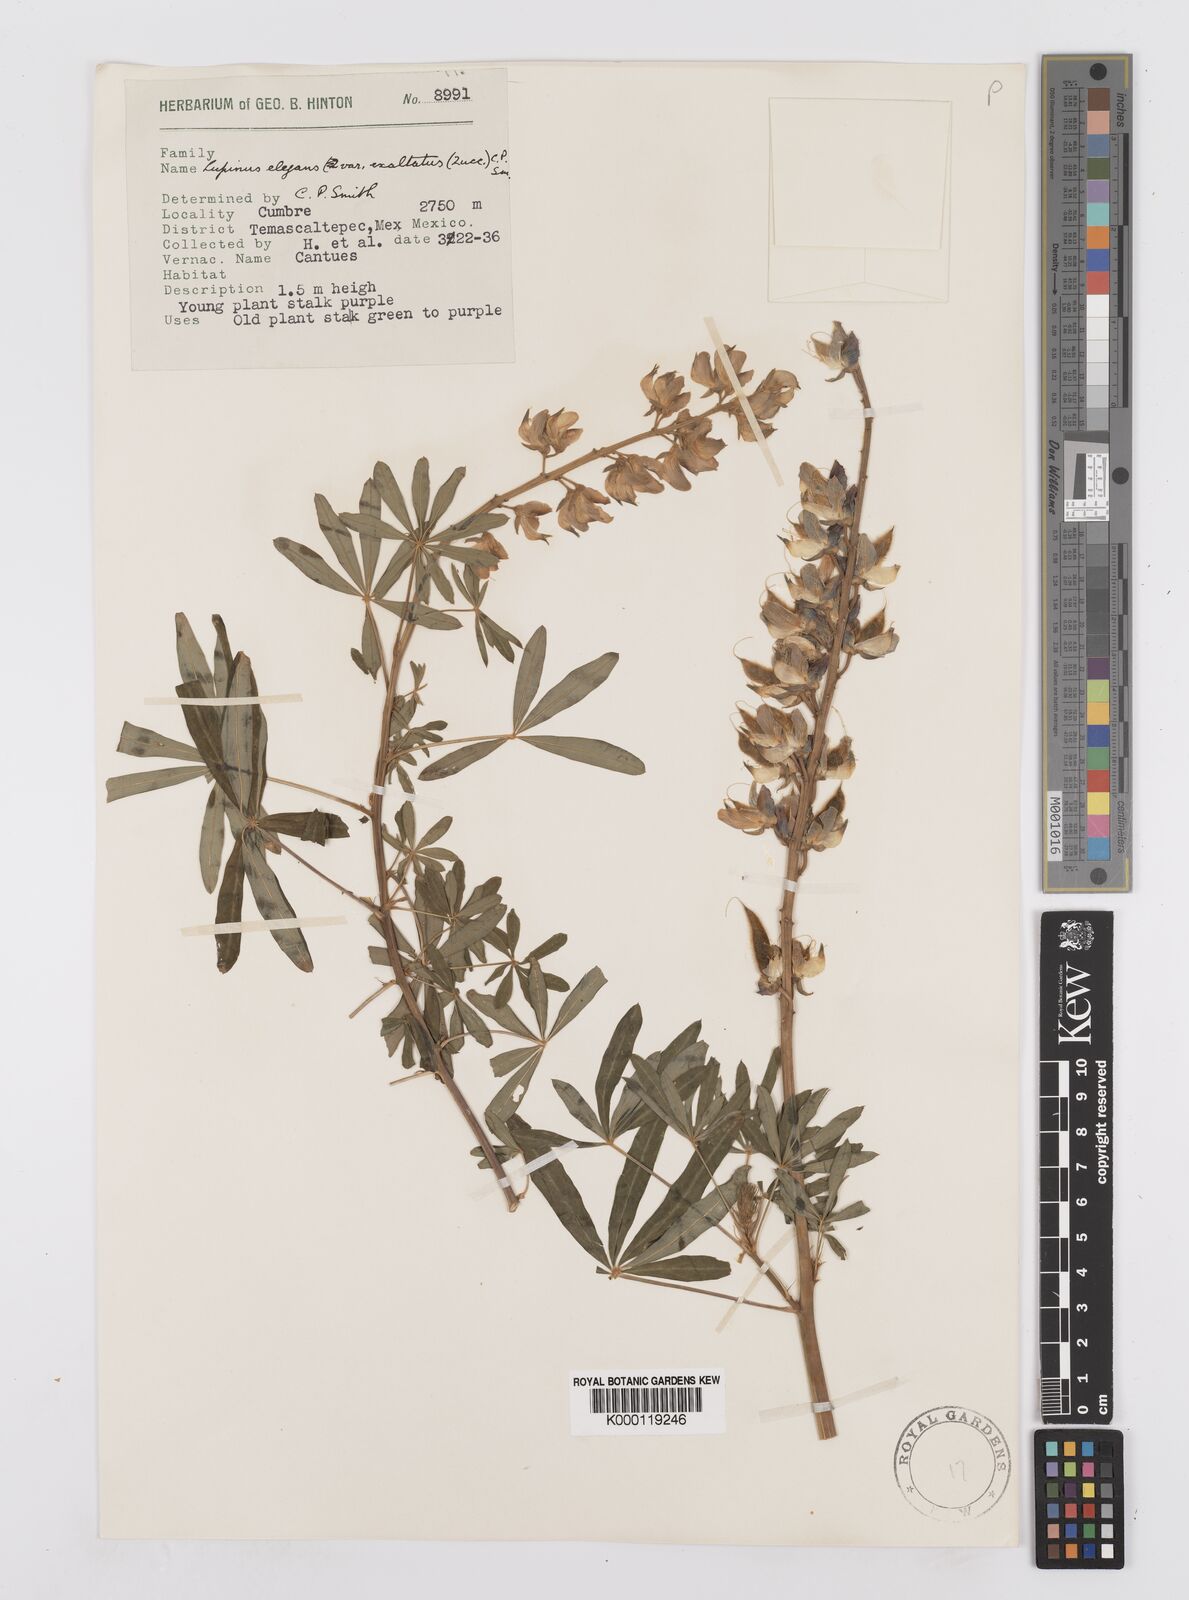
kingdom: Plantae
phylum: Tracheophyta
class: Magnoliopsida
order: Fabales
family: Fabaceae
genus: Lupinus
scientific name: Lupinus elegans
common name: Mexican lupine
